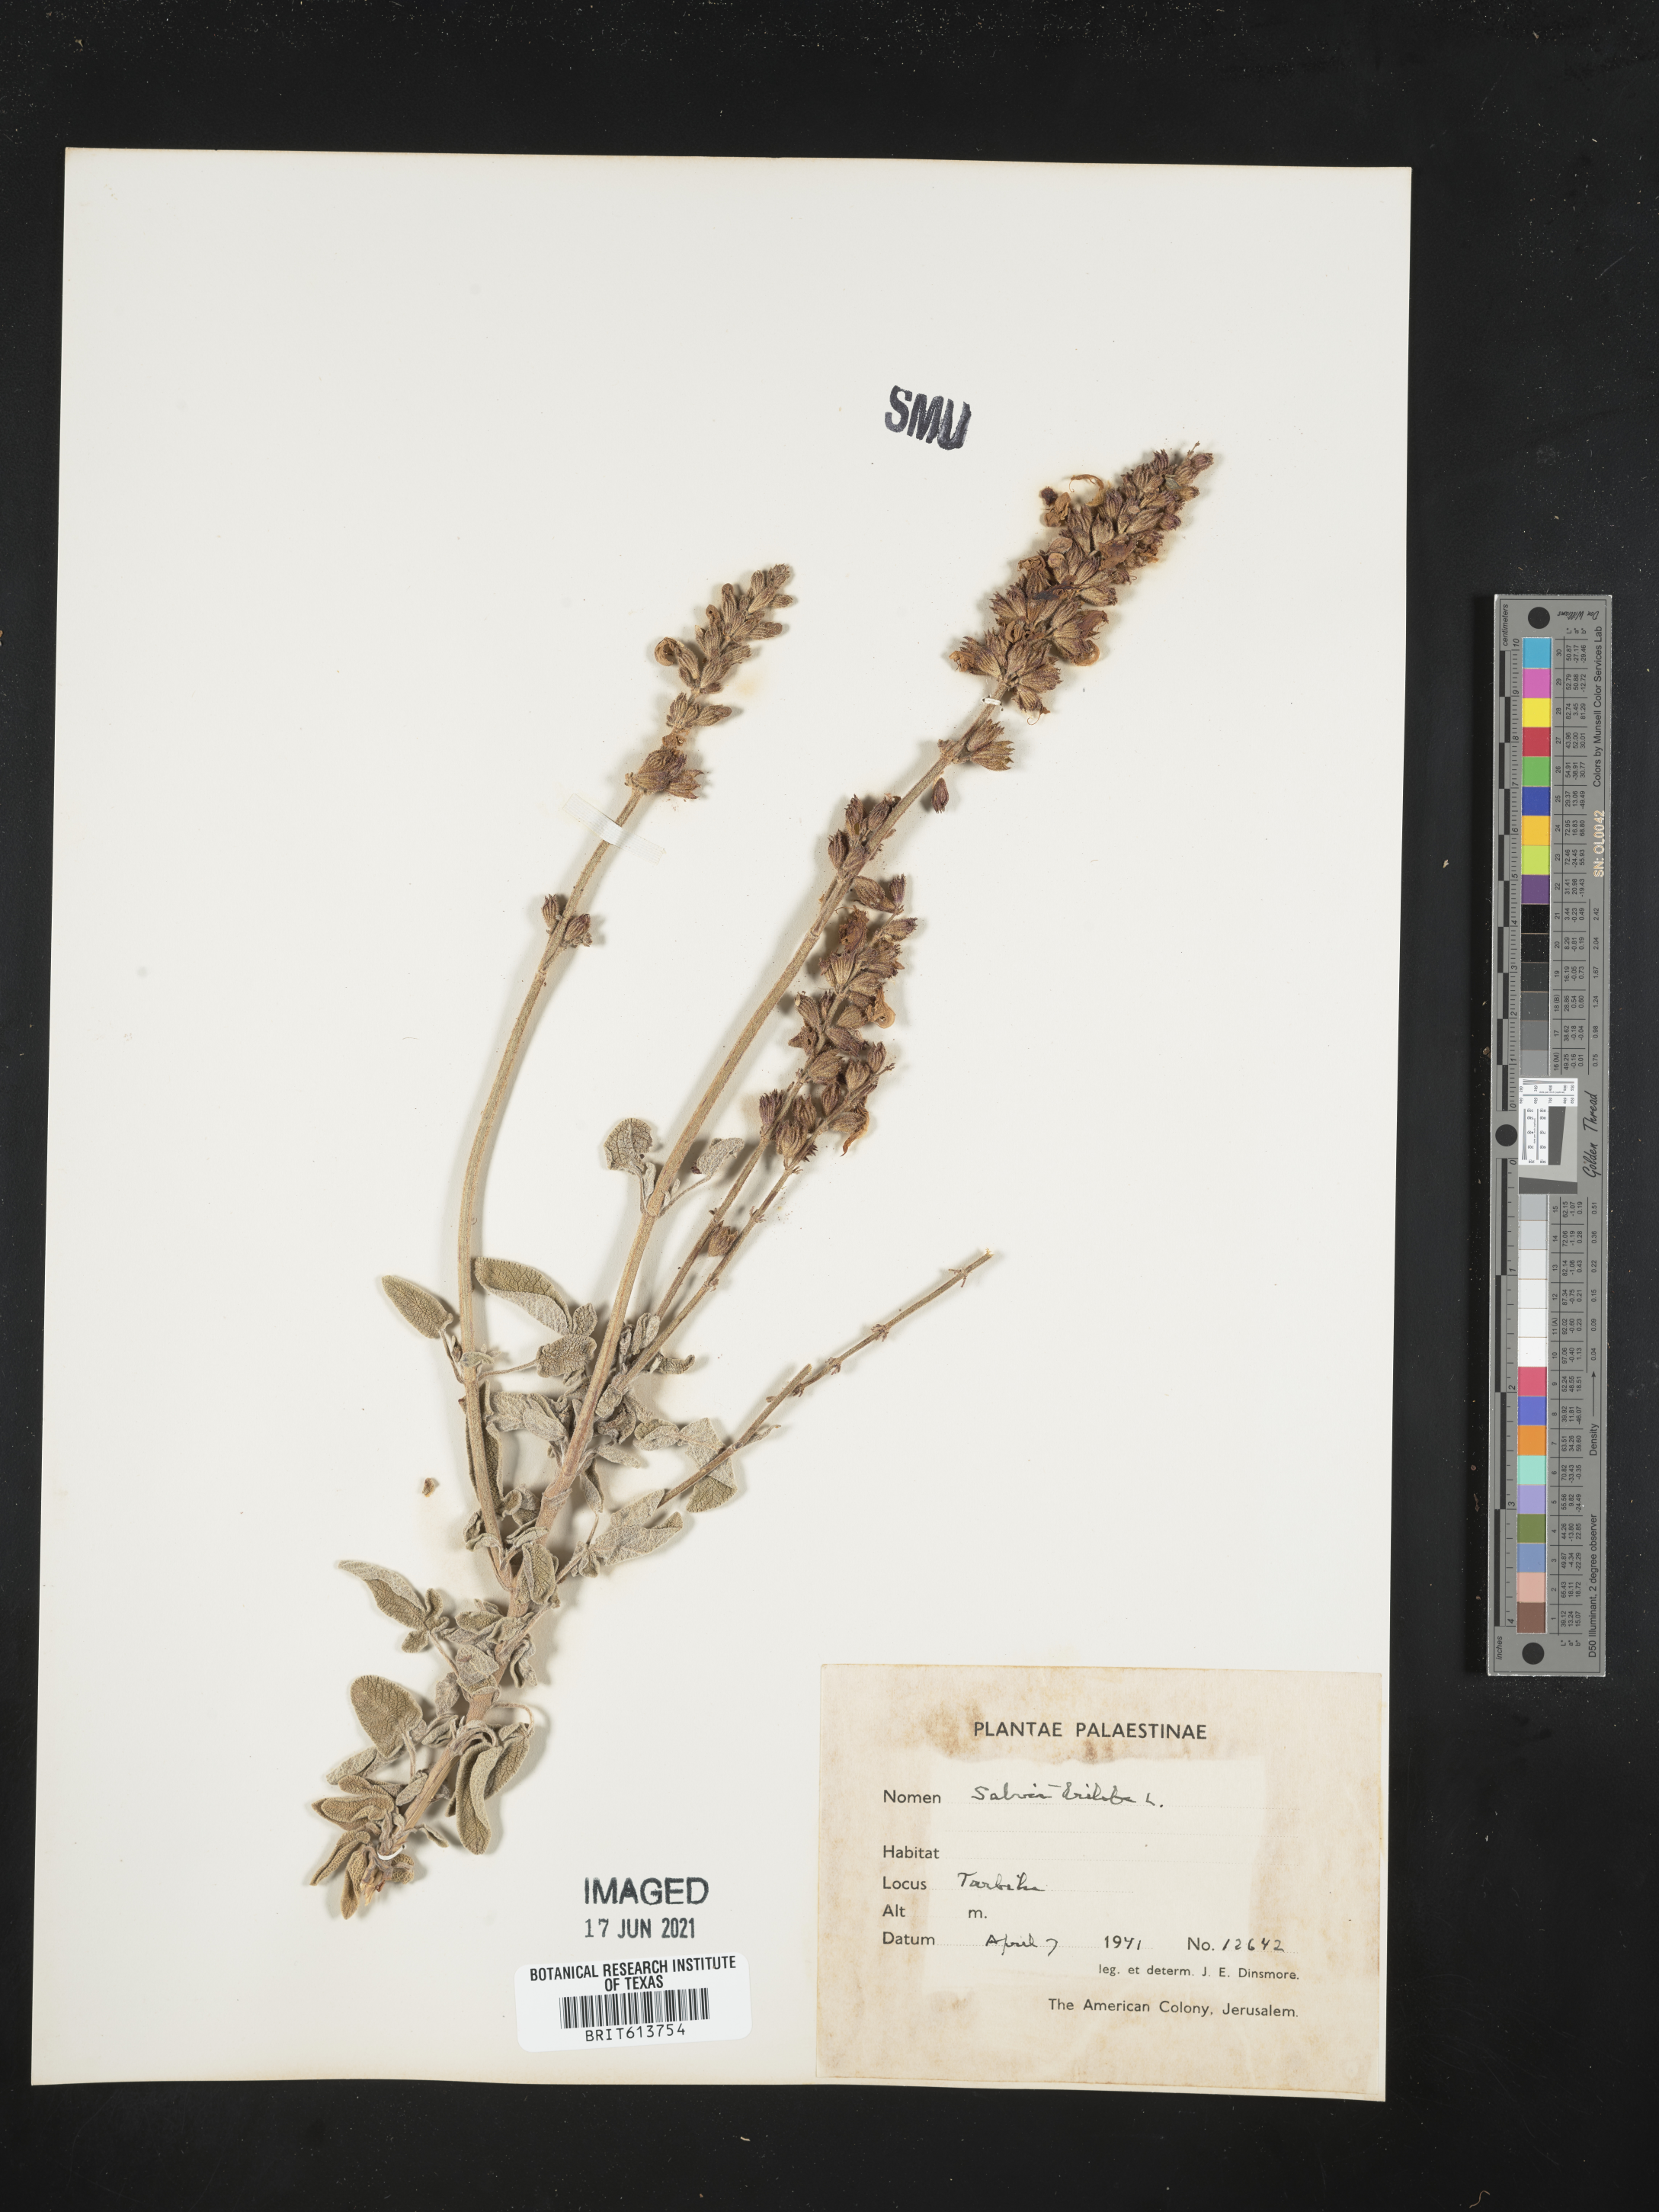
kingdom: Plantae
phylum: Tracheophyta
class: Magnoliopsida
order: Lamiales
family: Lamiaceae
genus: Salvia
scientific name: Salvia fruticosa
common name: Greek sage
